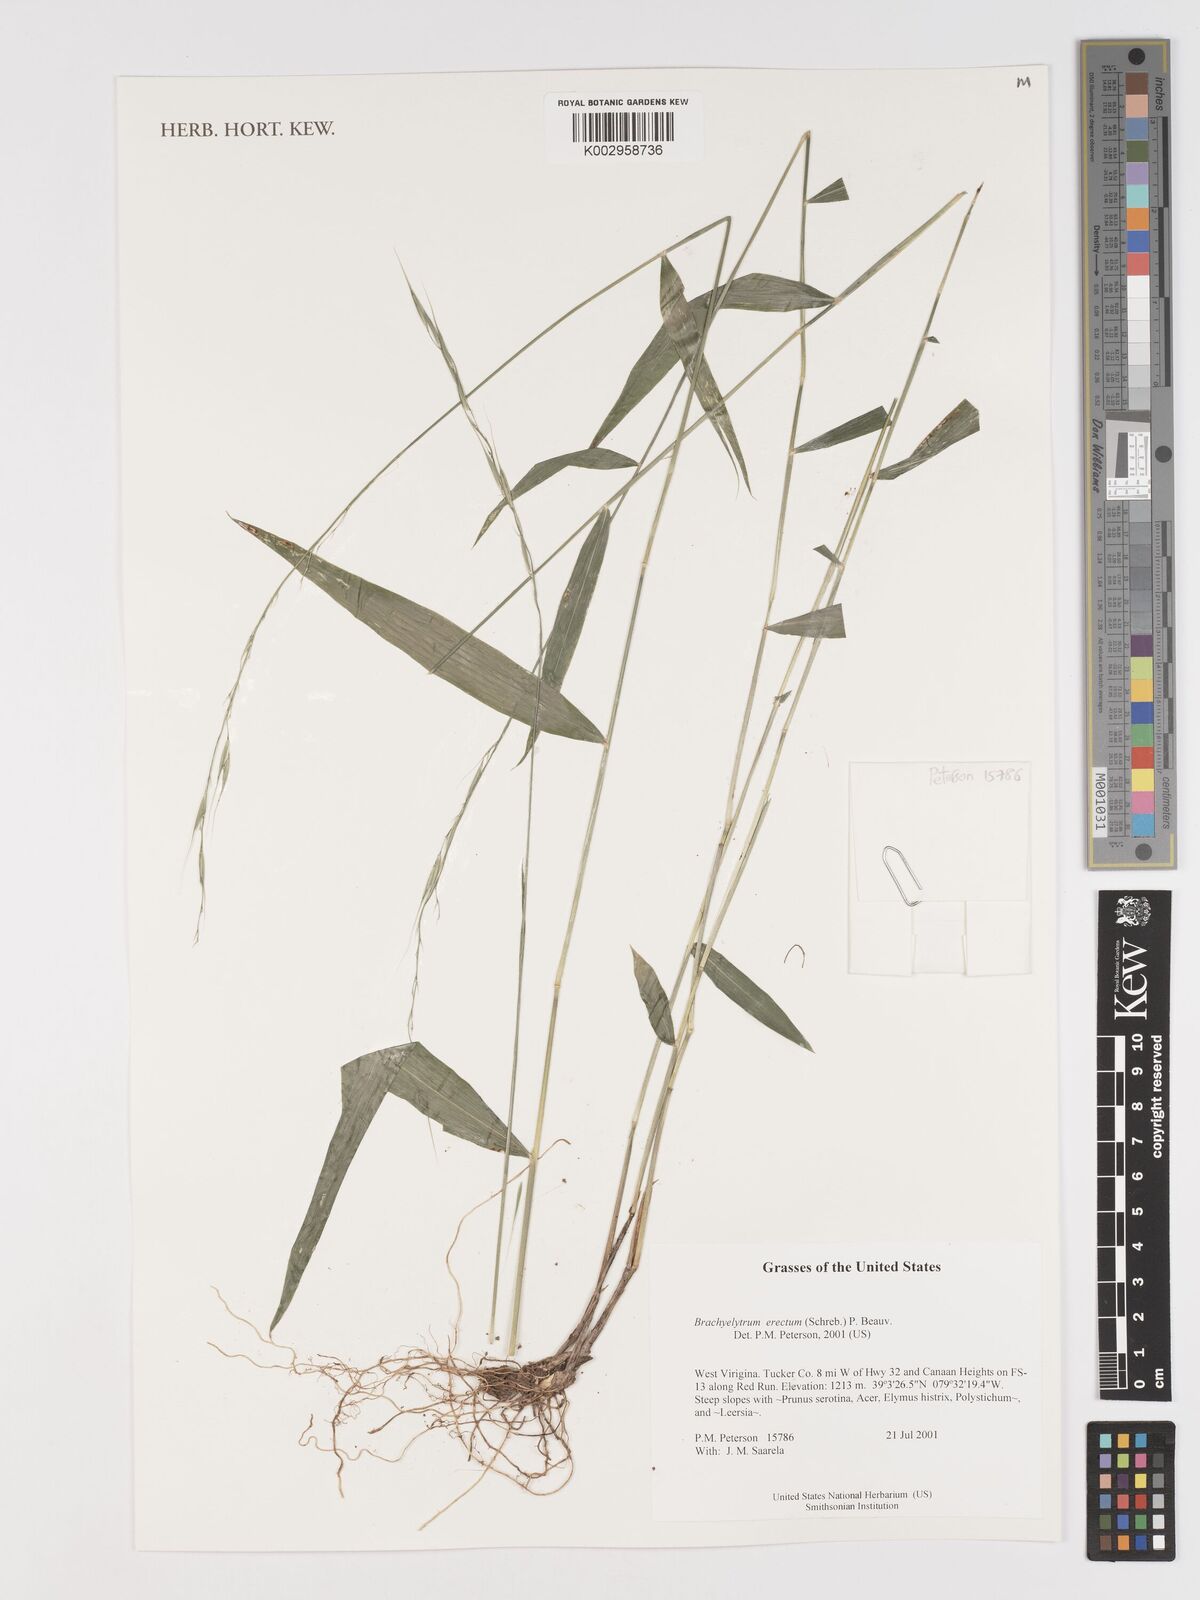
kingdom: Plantae
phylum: Tracheophyta
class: Liliopsida
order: Poales
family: Poaceae
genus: Brachyelytrum
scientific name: Brachyelytrum erectum
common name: Bearded shorthusk
